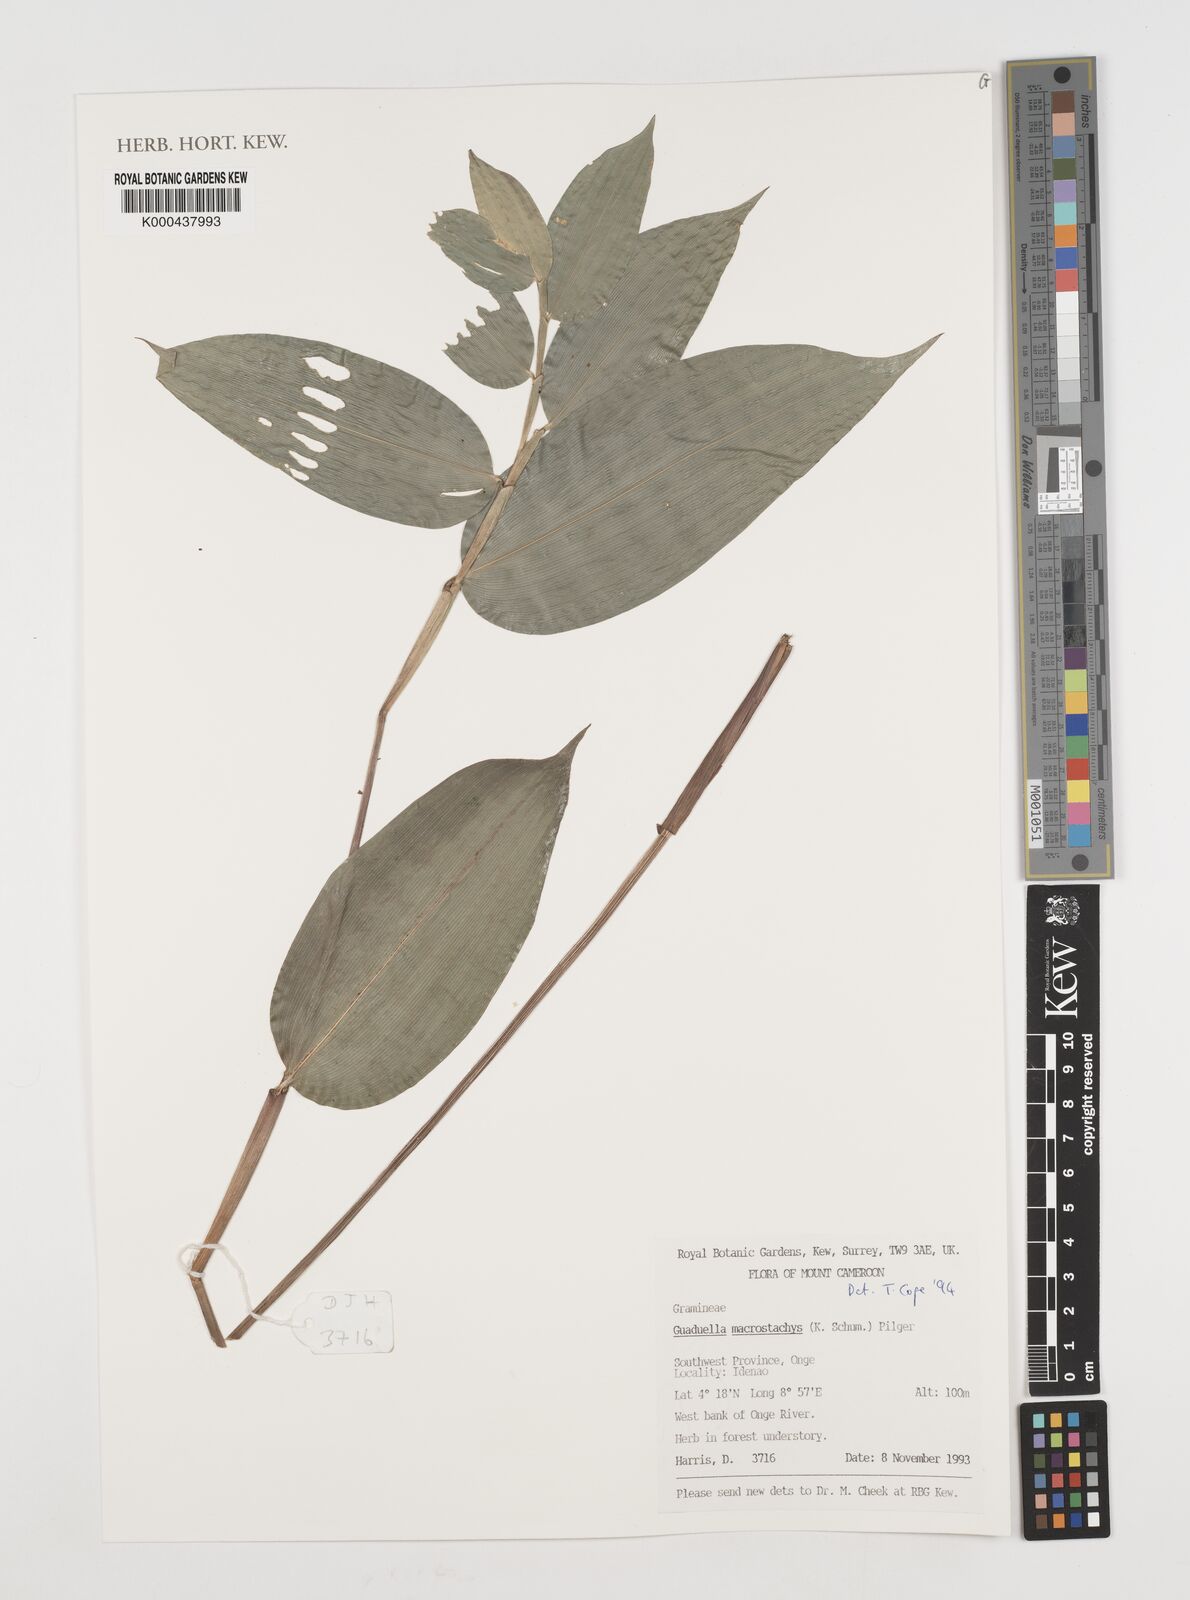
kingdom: Plantae
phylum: Tracheophyta
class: Liliopsida
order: Poales
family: Poaceae
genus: Guaduella
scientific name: Guaduella macrostachys
